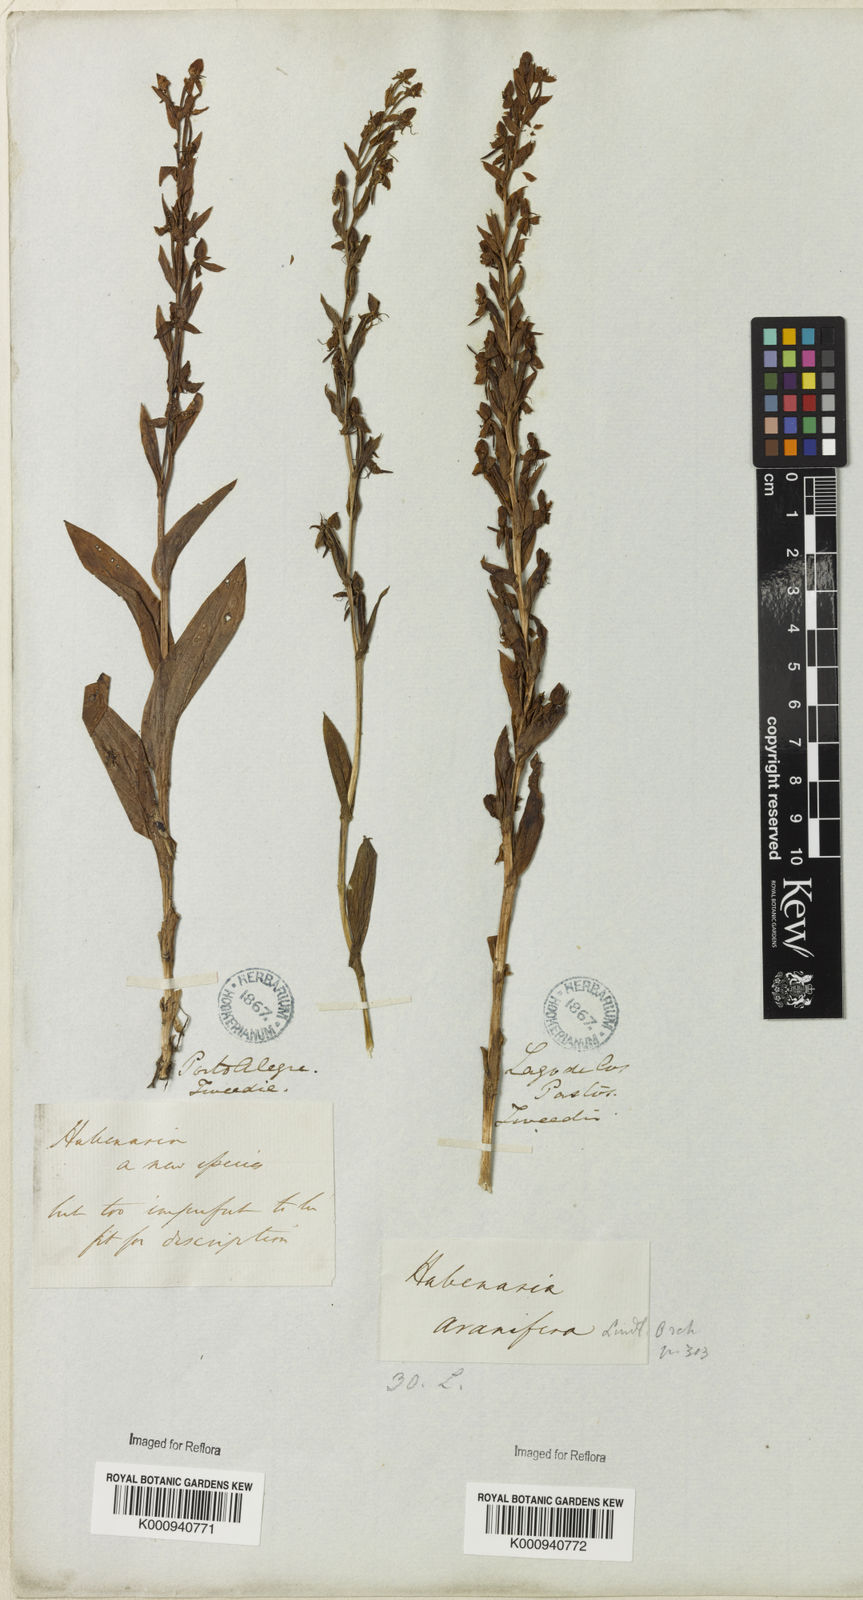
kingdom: Plantae
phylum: Tracheophyta
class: Liliopsida
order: Asparagales
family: Orchidaceae
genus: Habenaria
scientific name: Habenaria aranifera
